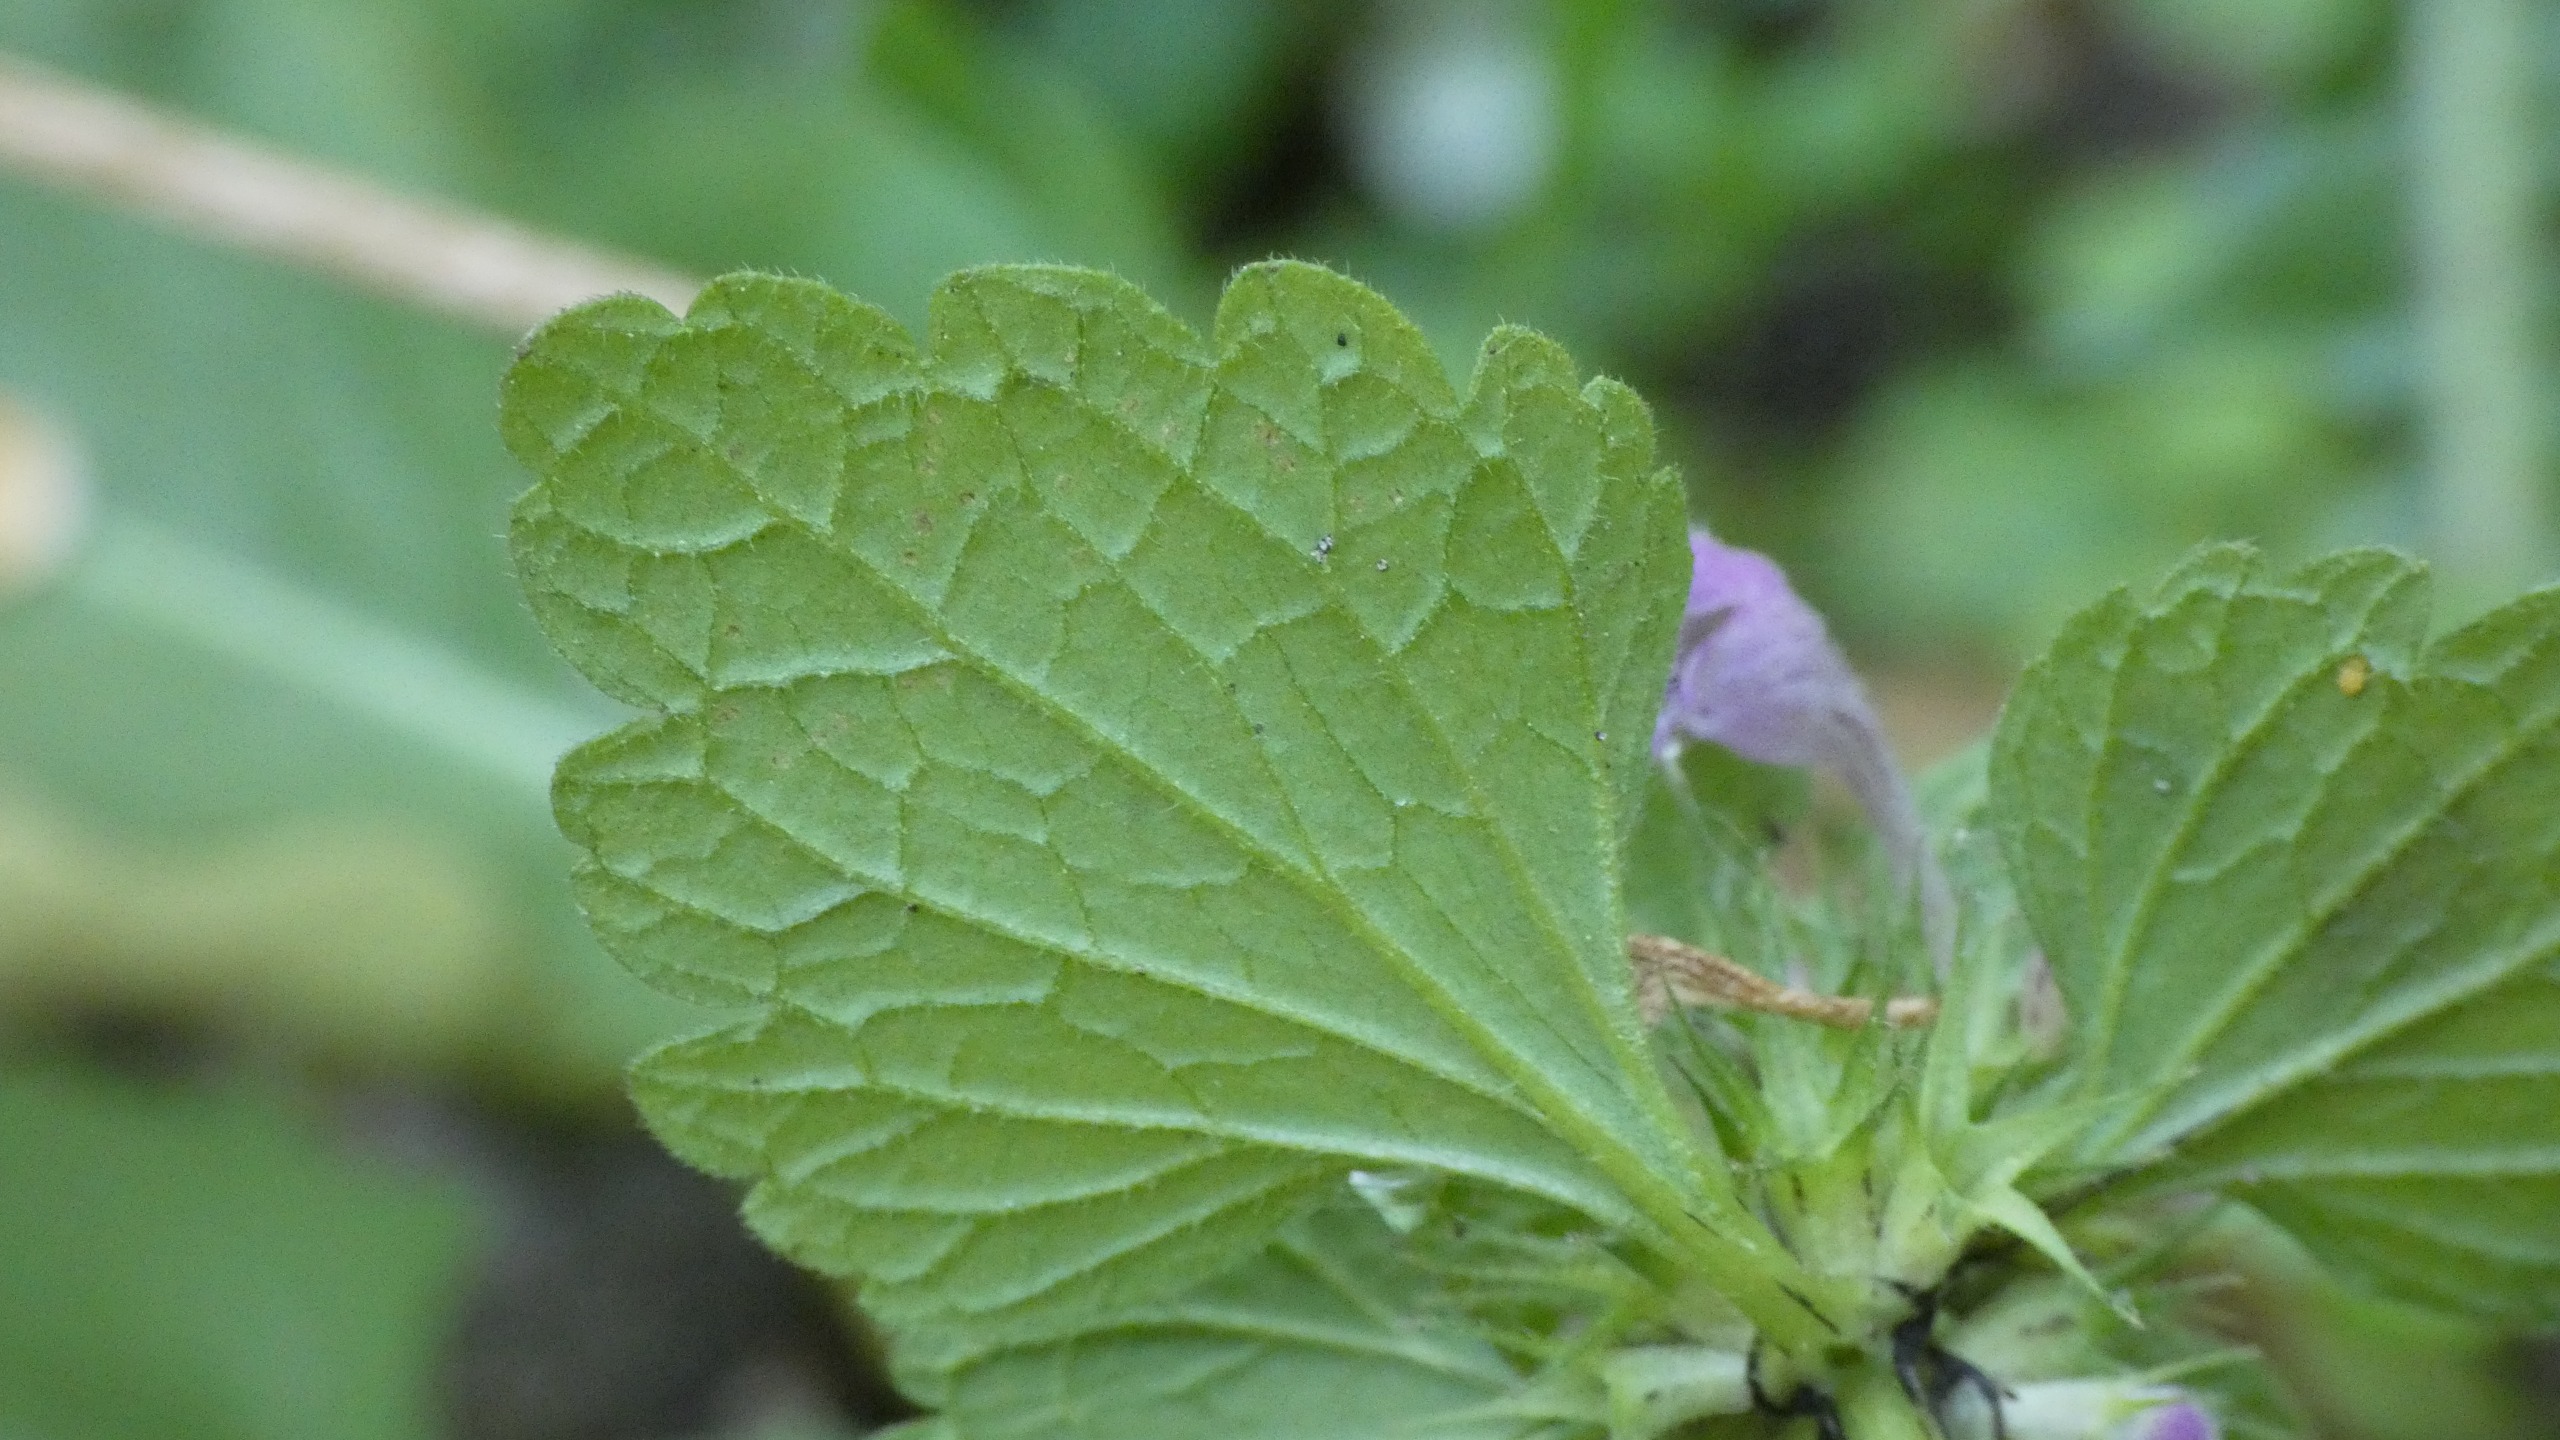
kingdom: Plantae
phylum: Tracheophyta
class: Magnoliopsida
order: Lamiales
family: Lamiaceae
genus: Lamium
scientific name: Lamium purpureum
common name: Rød tvetand
